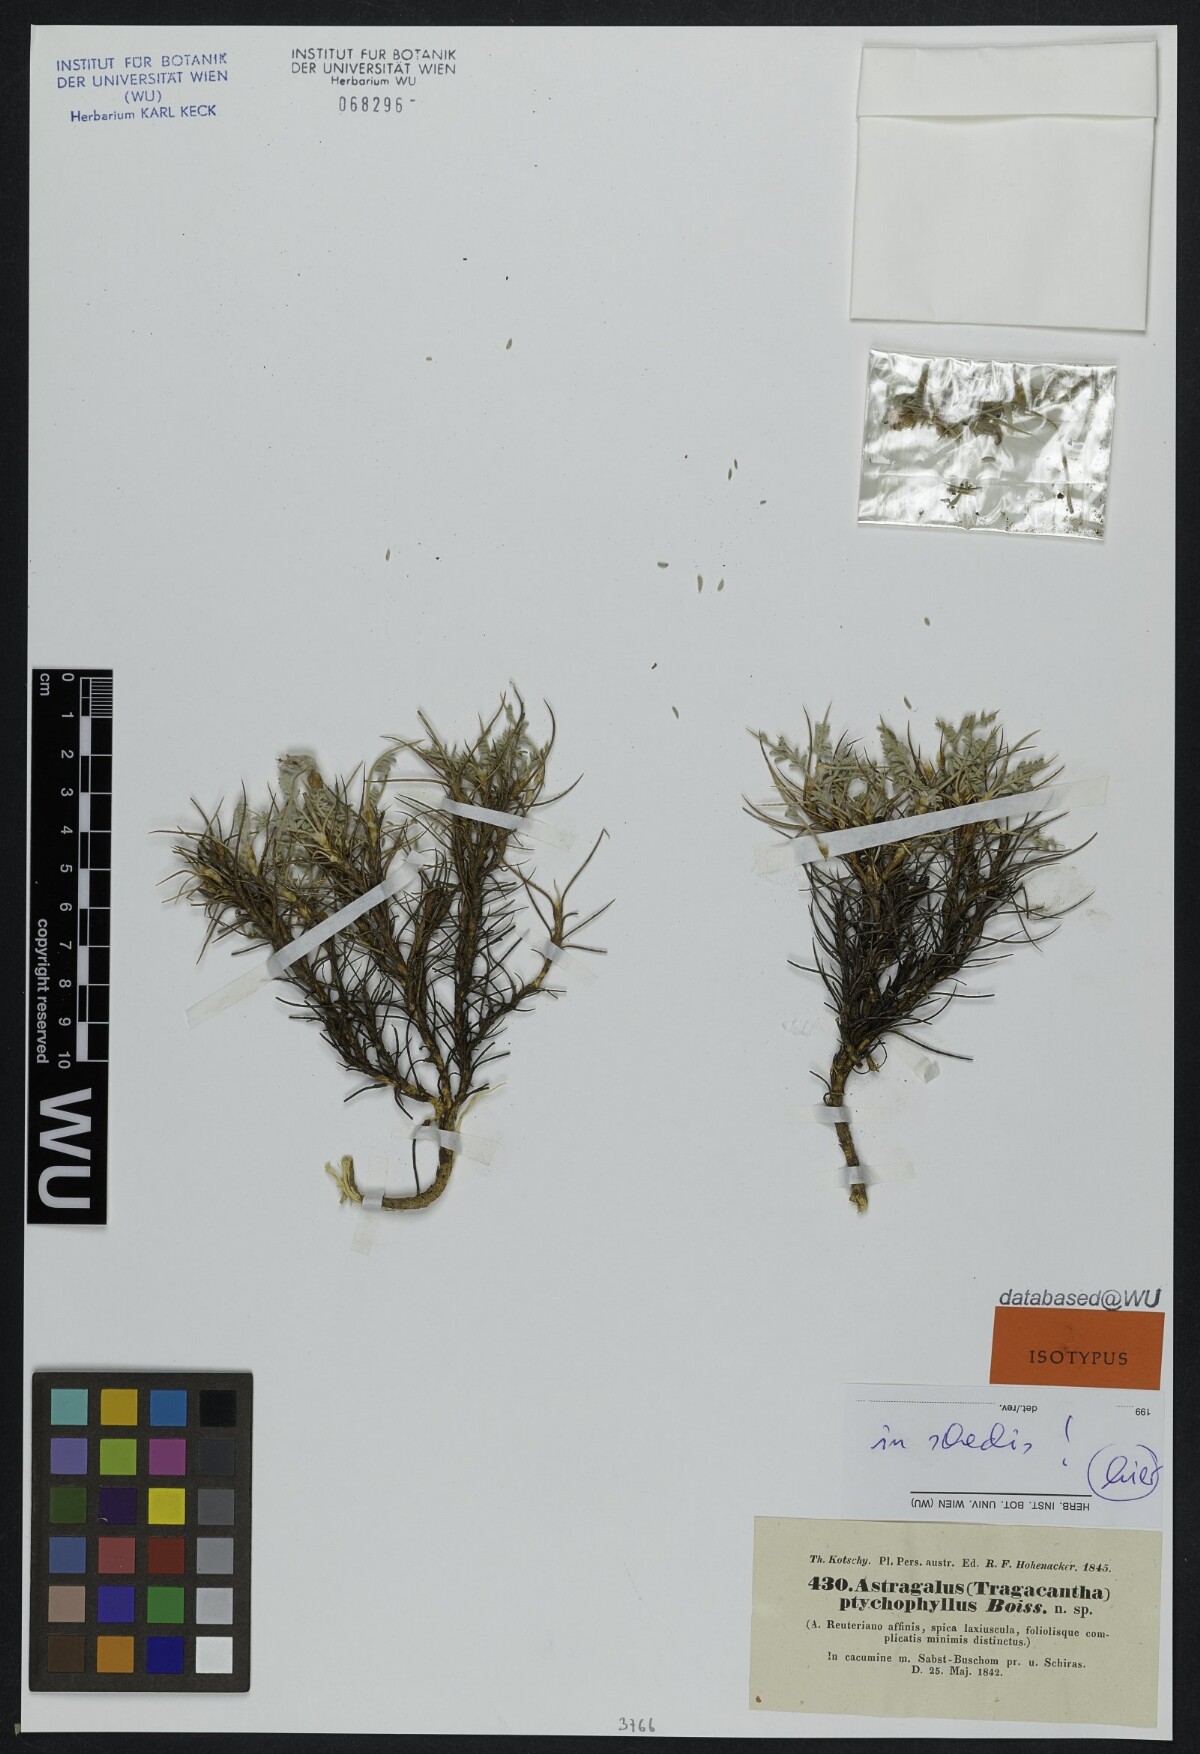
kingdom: Plantae
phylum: Tracheophyta
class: Magnoliopsida
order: Fabales
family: Fabaceae
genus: Astragalus
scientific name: Astragalus ptychophyllus
